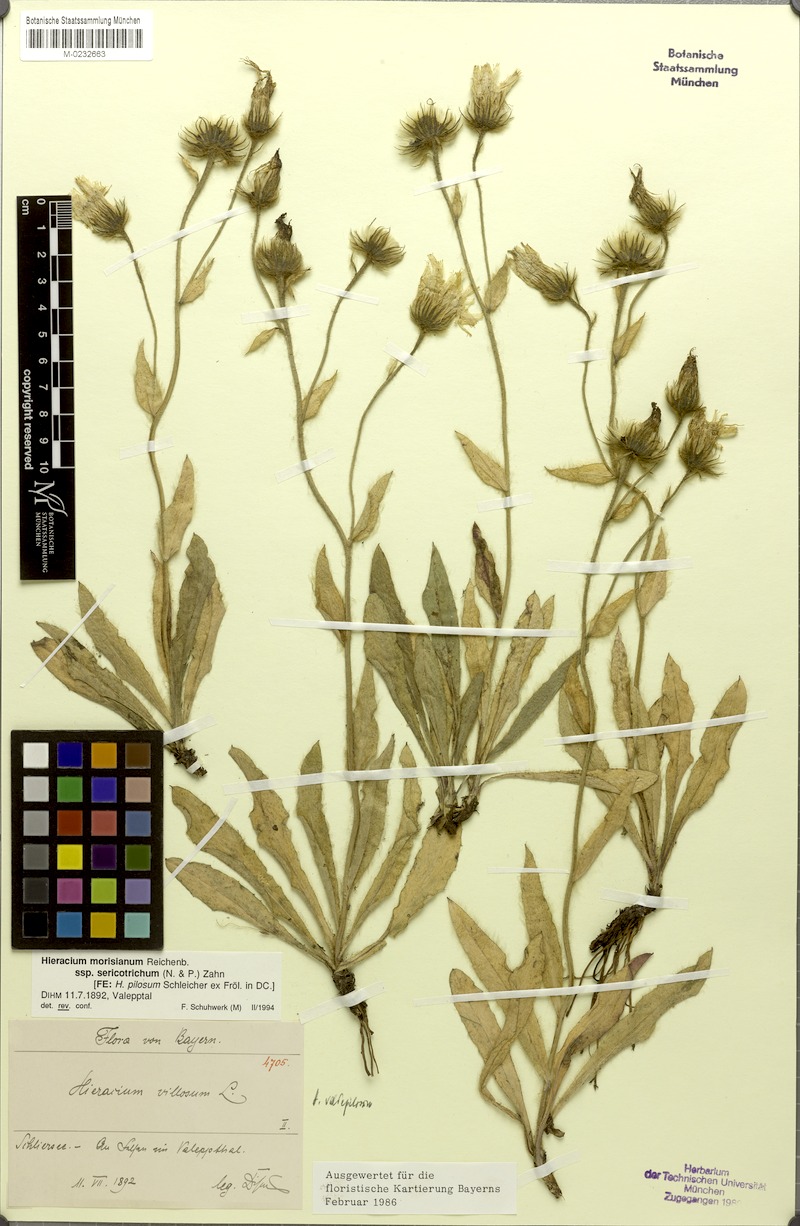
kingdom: Plantae
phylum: Tracheophyta
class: Magnoliopsida
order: Asterales
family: Asteraceae
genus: Hieracium
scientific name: Hieracium pilosum
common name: Fimbriate-pitted hawkweed
